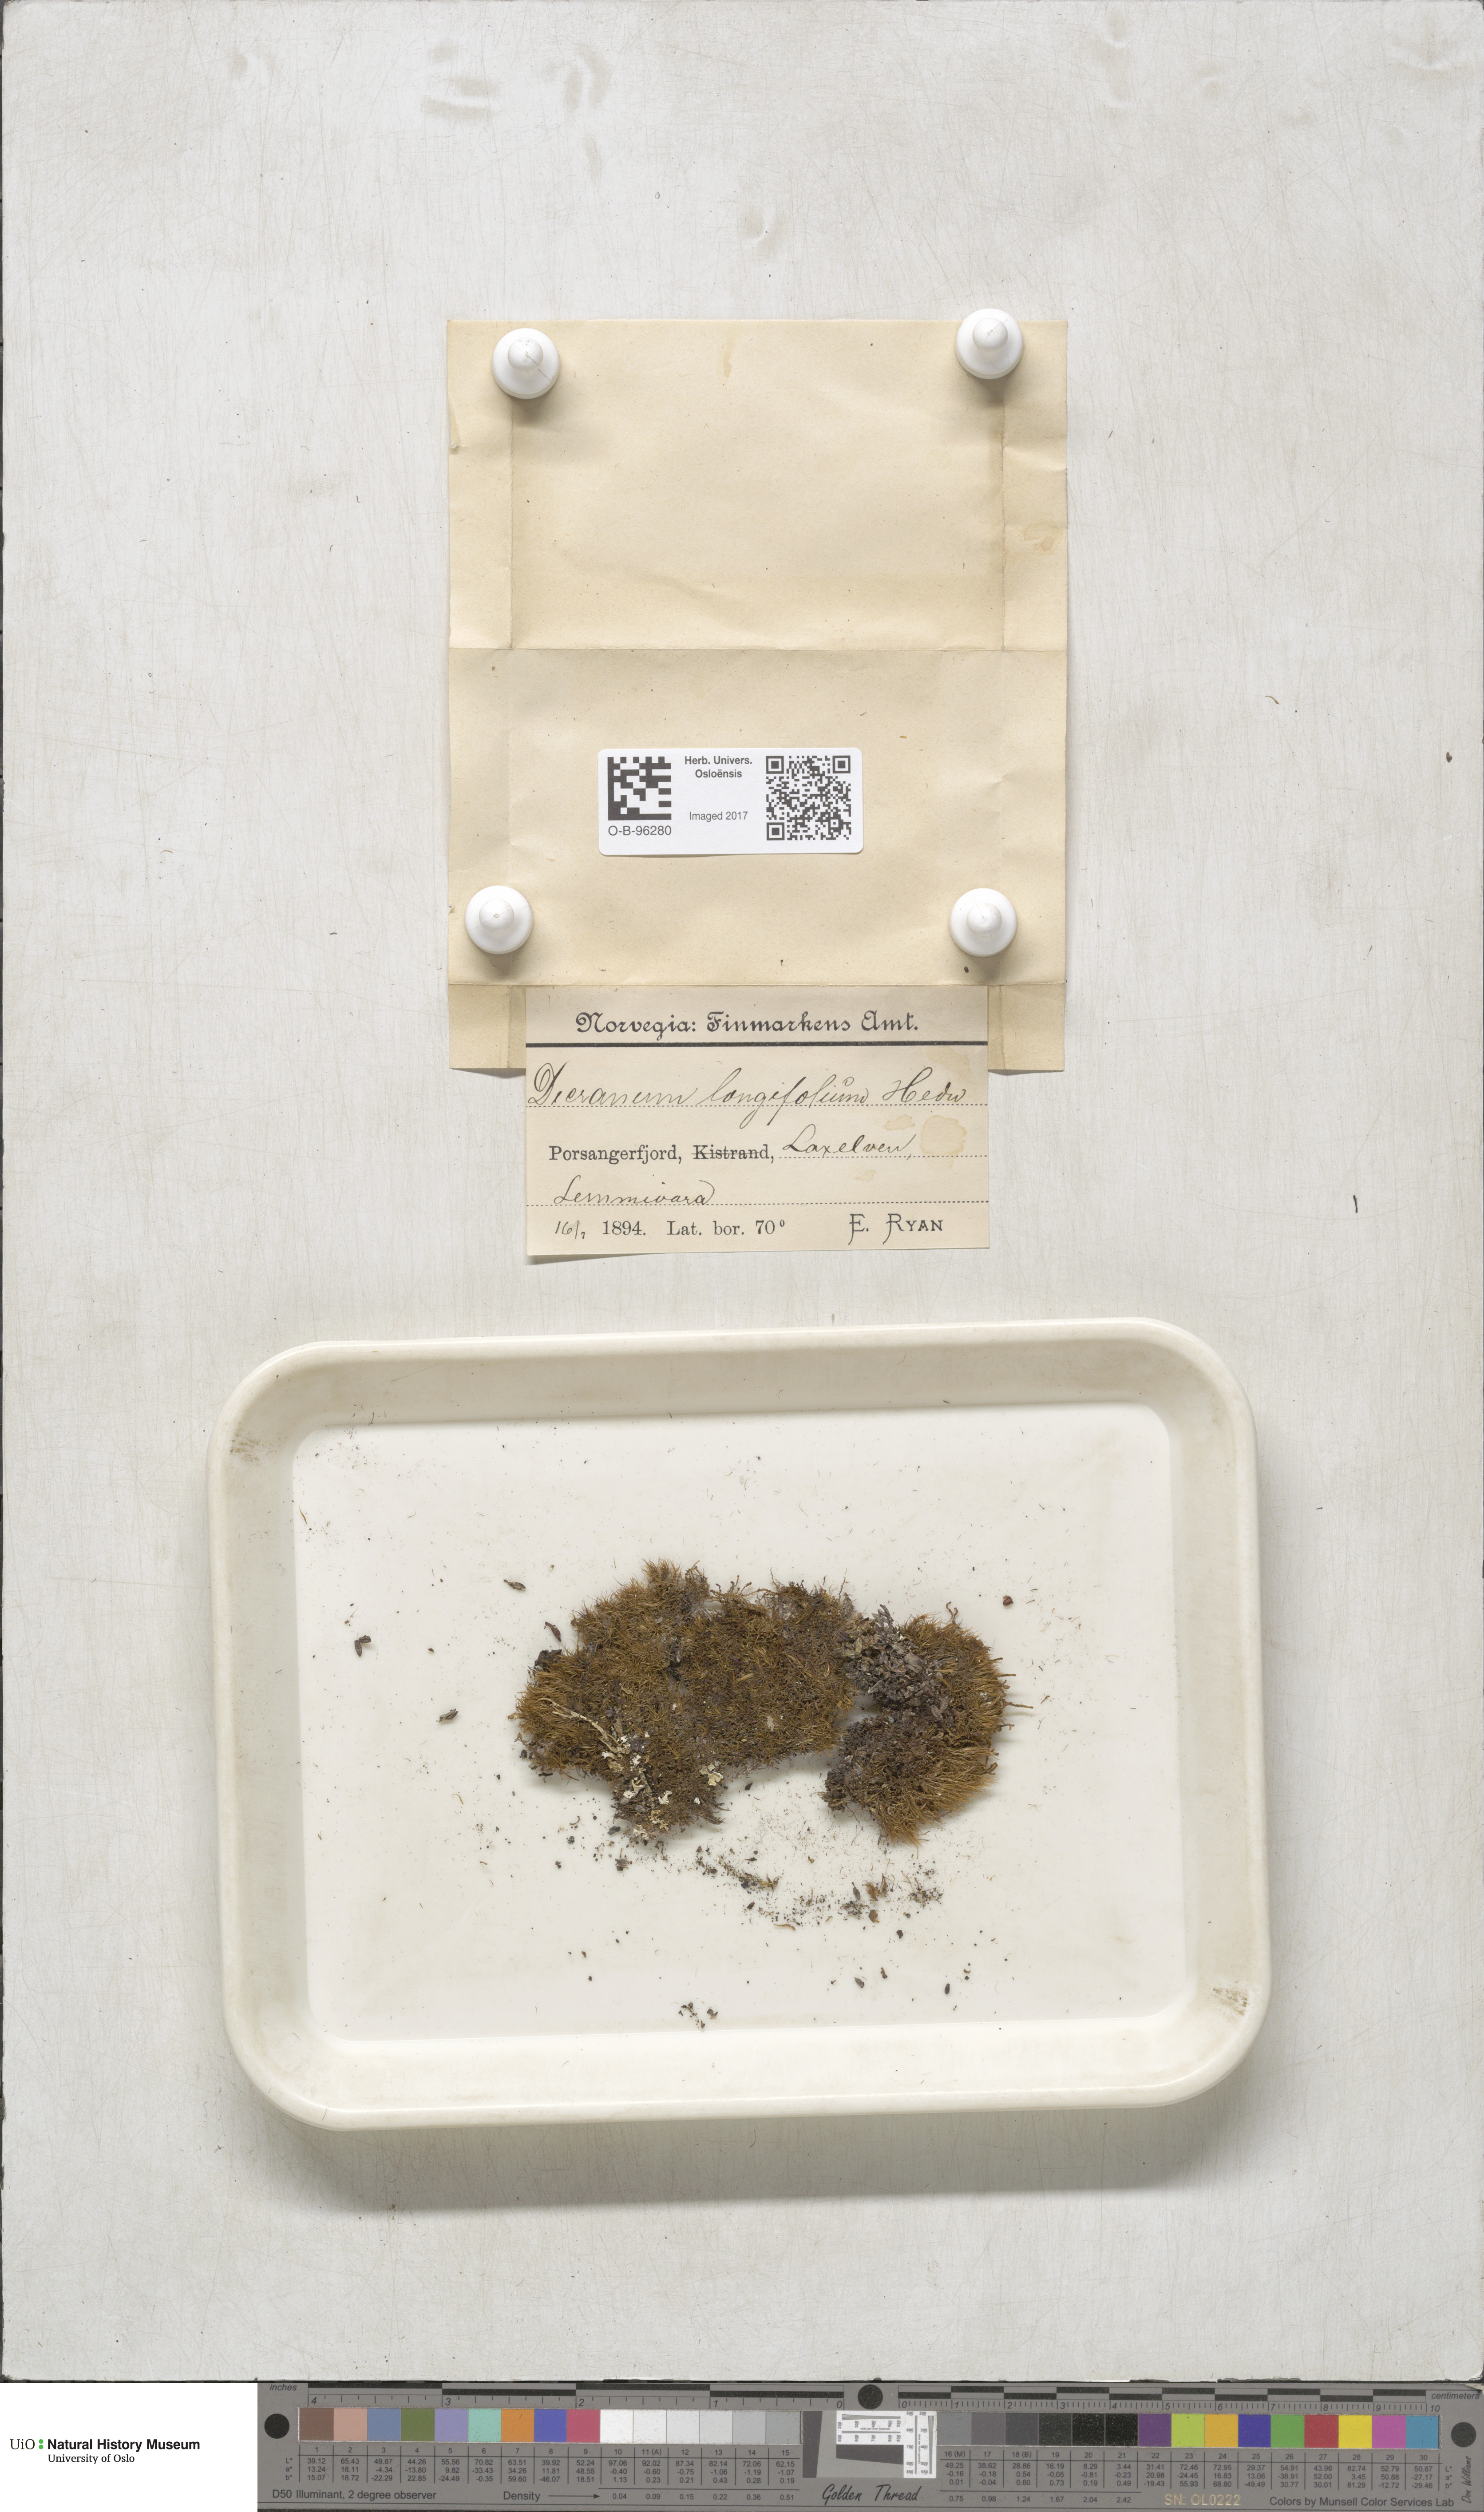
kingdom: Plantae
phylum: Bryophyta
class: Bryopsida
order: Dicranales
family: Dicranaceae
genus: Paraleucobryum
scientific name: Paraleucobryum longifolium
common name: Long-leaved fork moss
